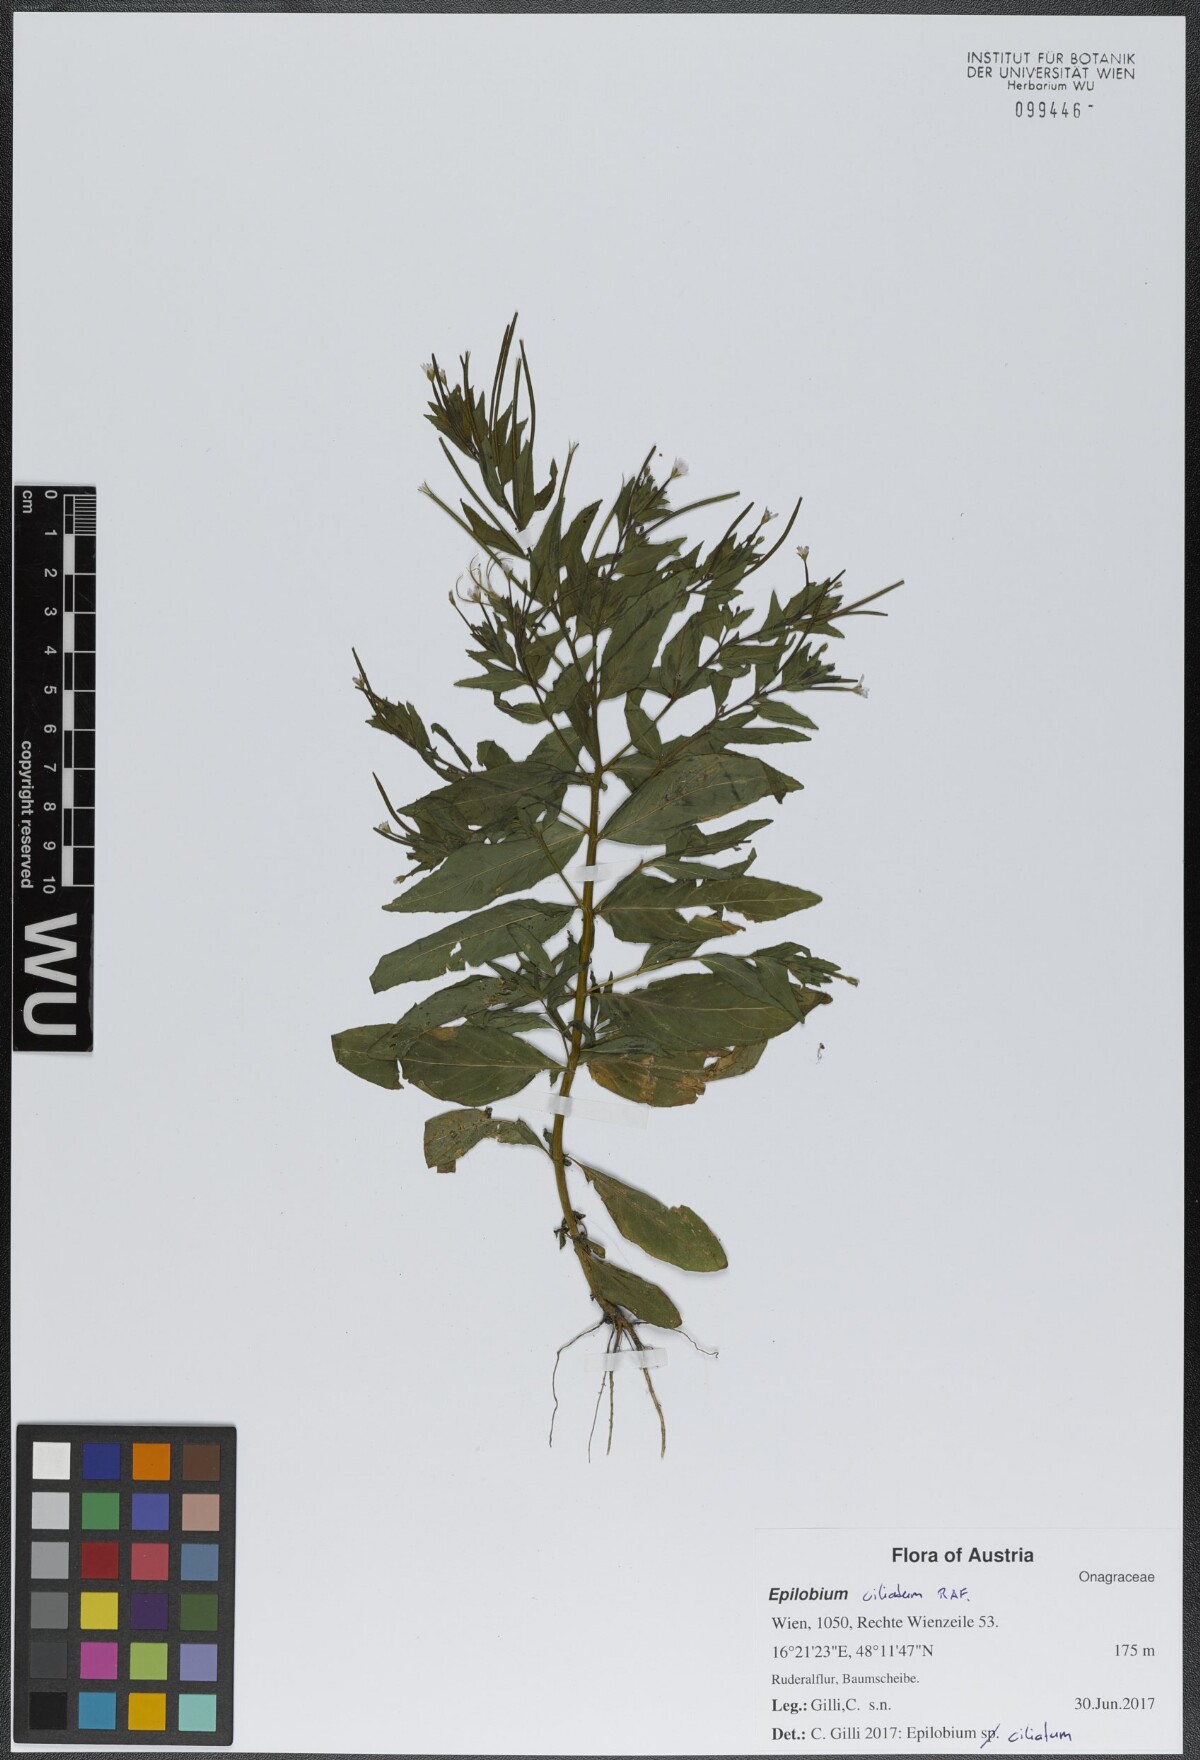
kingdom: Plantae
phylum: Tracheophyta
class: Magnoliopsida
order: Myrtales
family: Onagraceae
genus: Epilobium
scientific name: Epilobium ciliatum
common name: American willowherb
